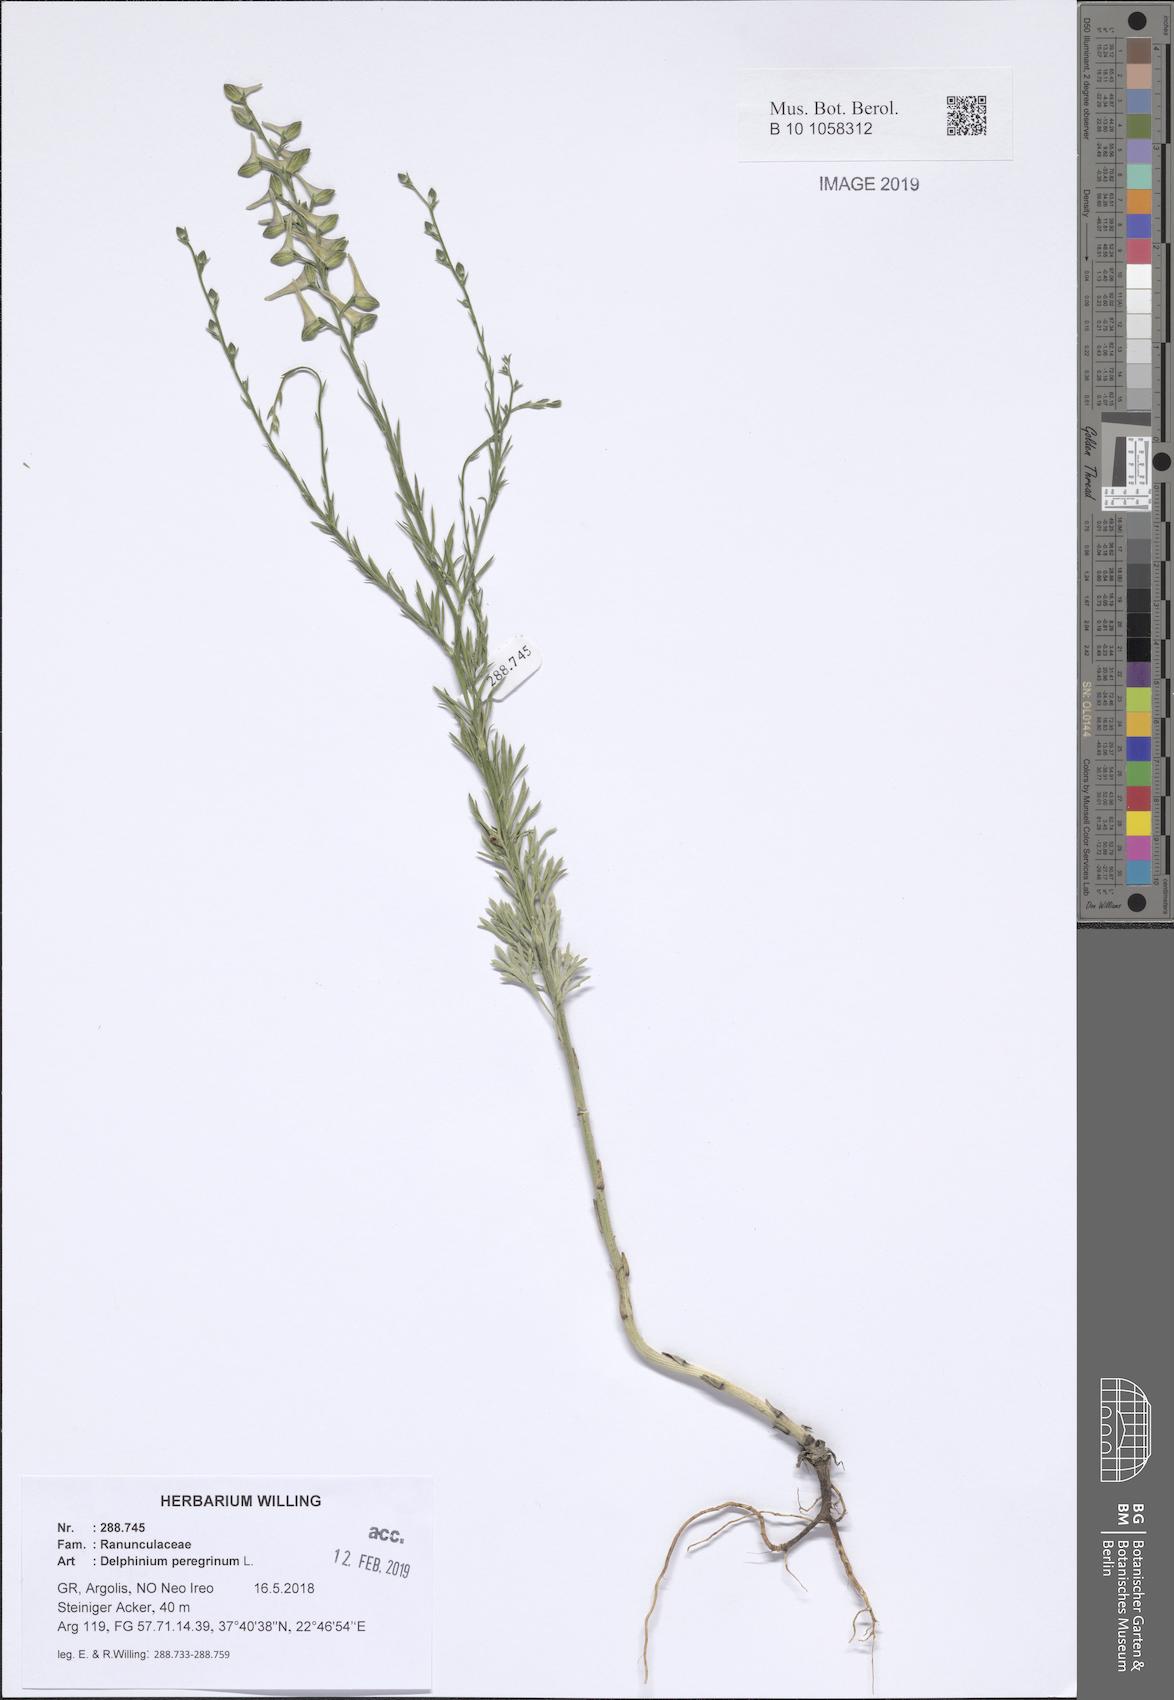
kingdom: Plantae
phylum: Tracheophyta
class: Magnoliopsida
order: Ranunculales
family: Ranunculaceae
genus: Delphinium
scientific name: Delphinium peregrinum
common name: Violet larkspur
